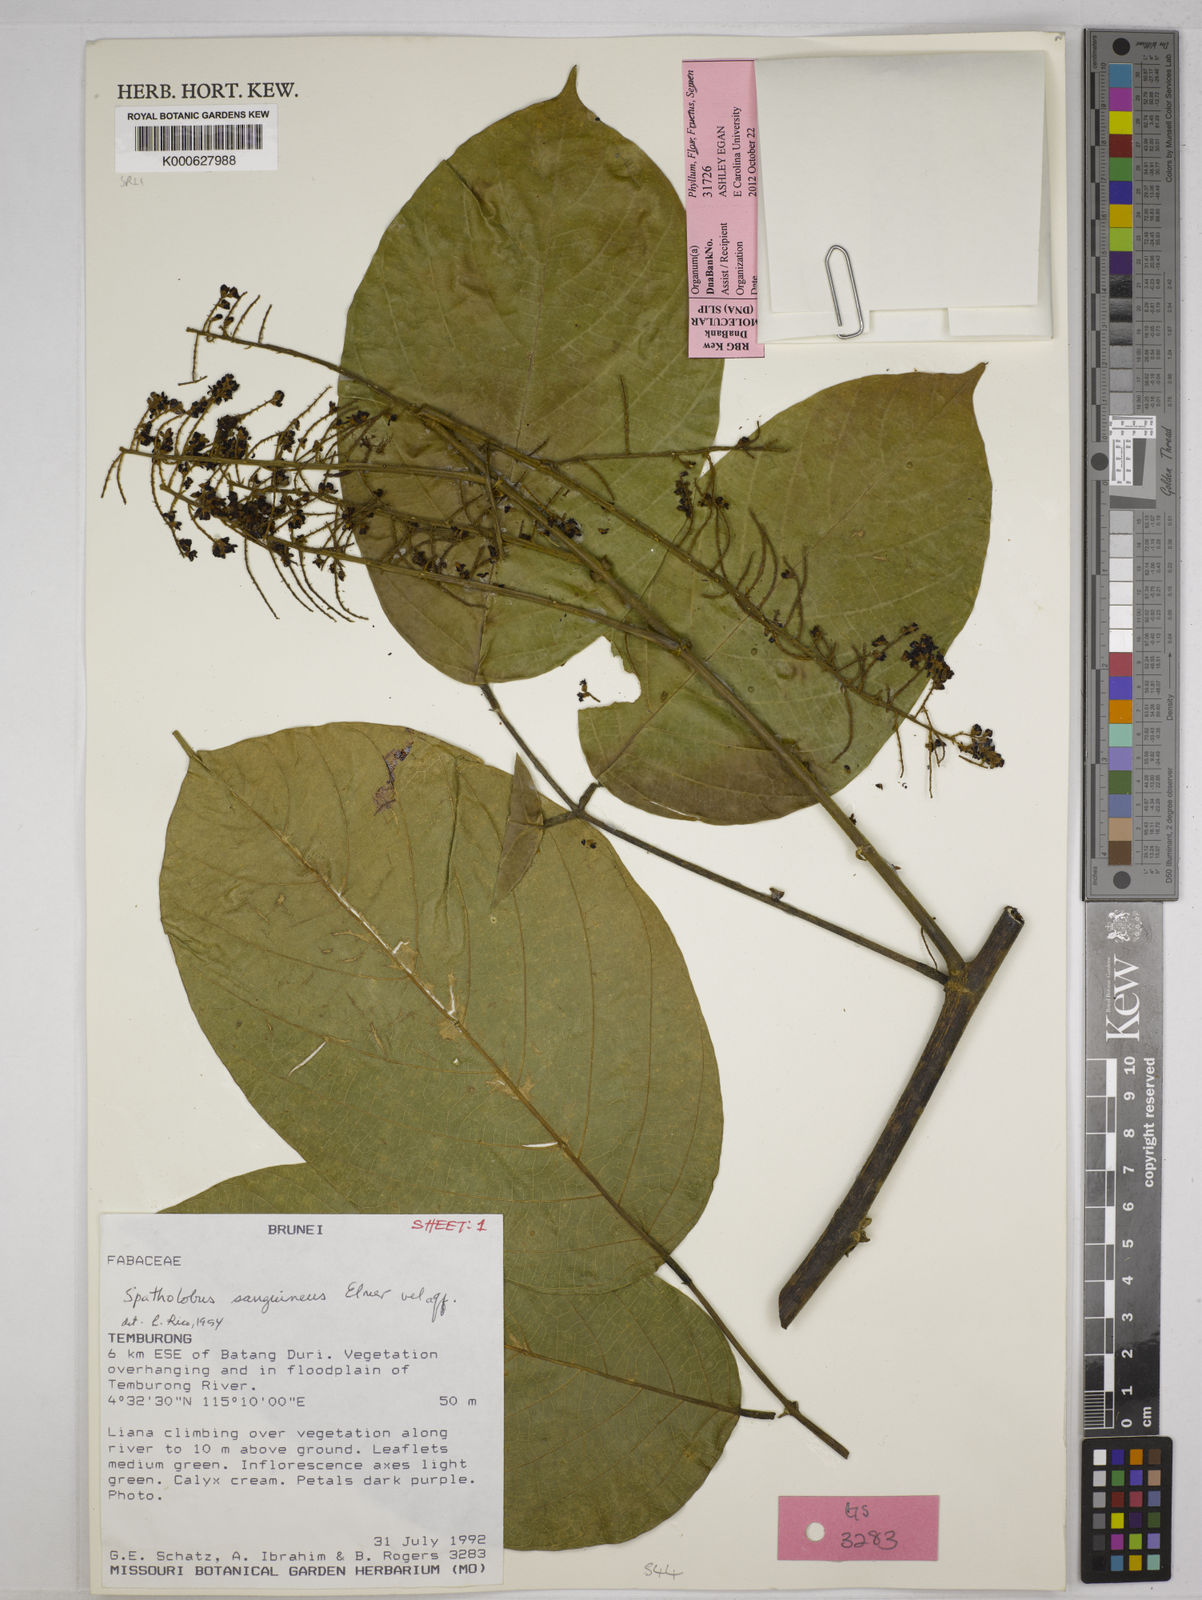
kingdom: Plantae
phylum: Tracheophyta
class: Magnoliopsida
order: Fabales
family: Fabaceae
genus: Spatholobus
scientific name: Spatholobus
